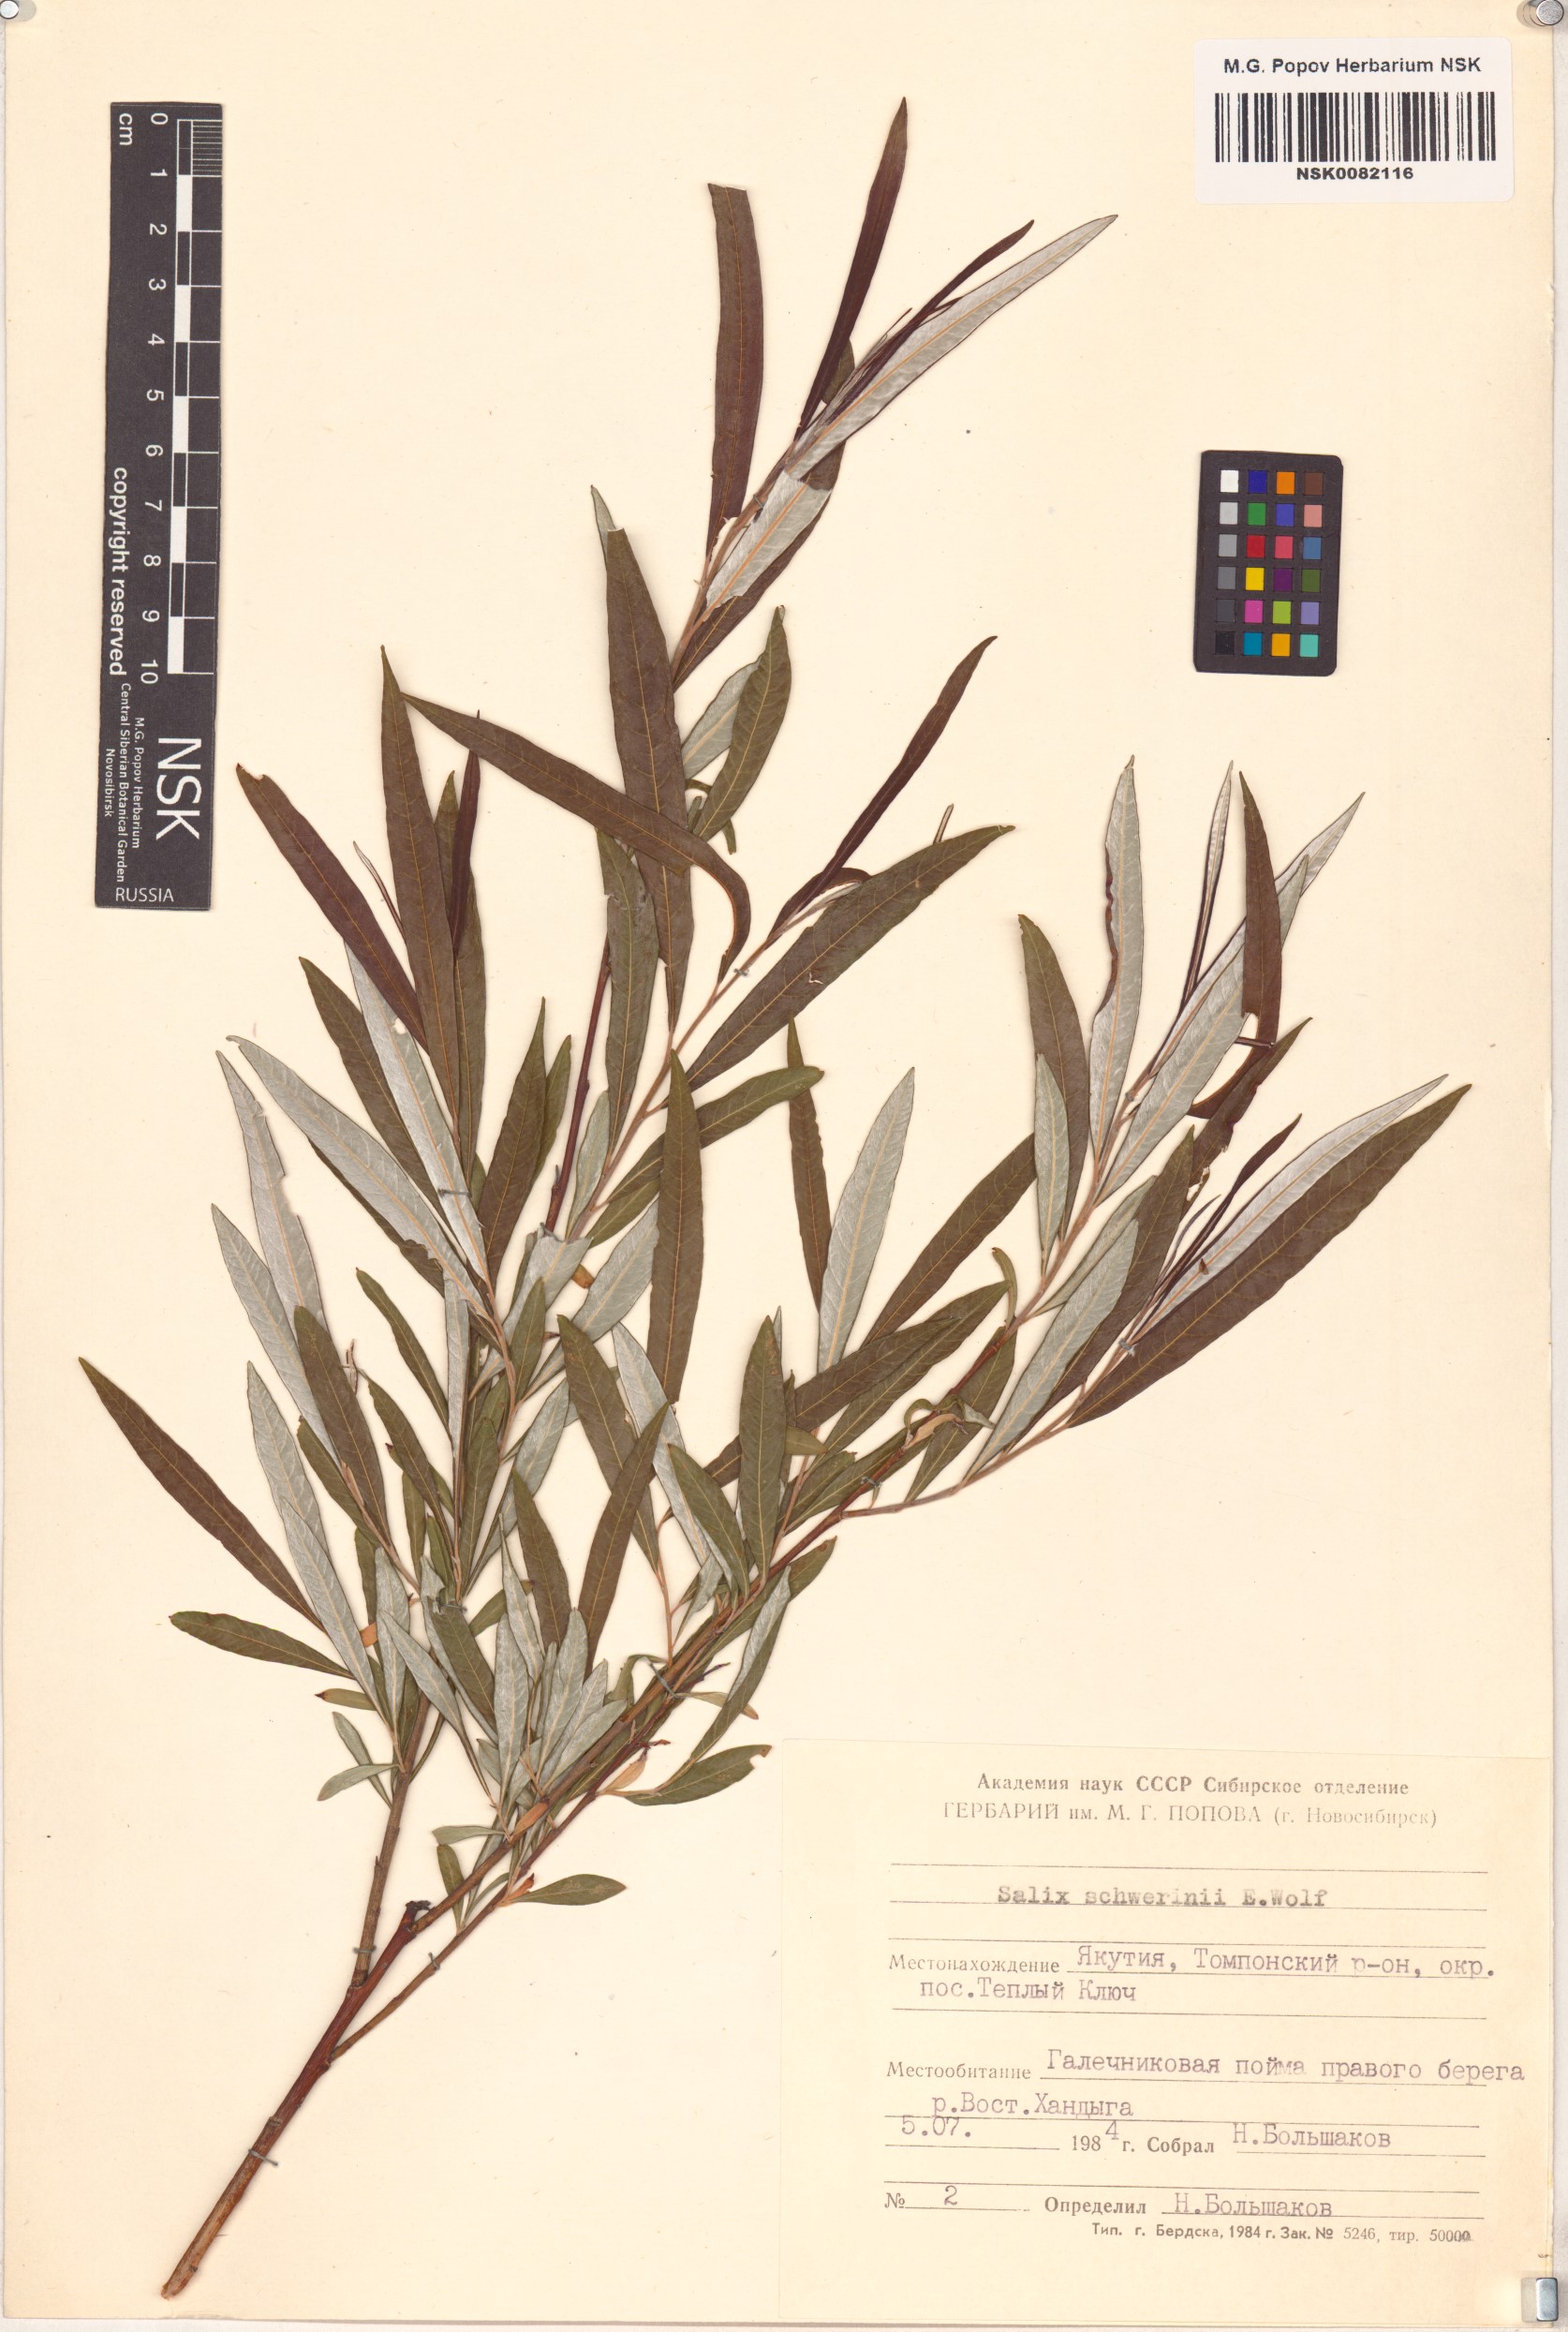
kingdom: Plantae
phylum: Tracheophyta
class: Magnoliopsida
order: Malpighiales
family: Salicaceae
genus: Salix
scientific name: Salix schwerinii
